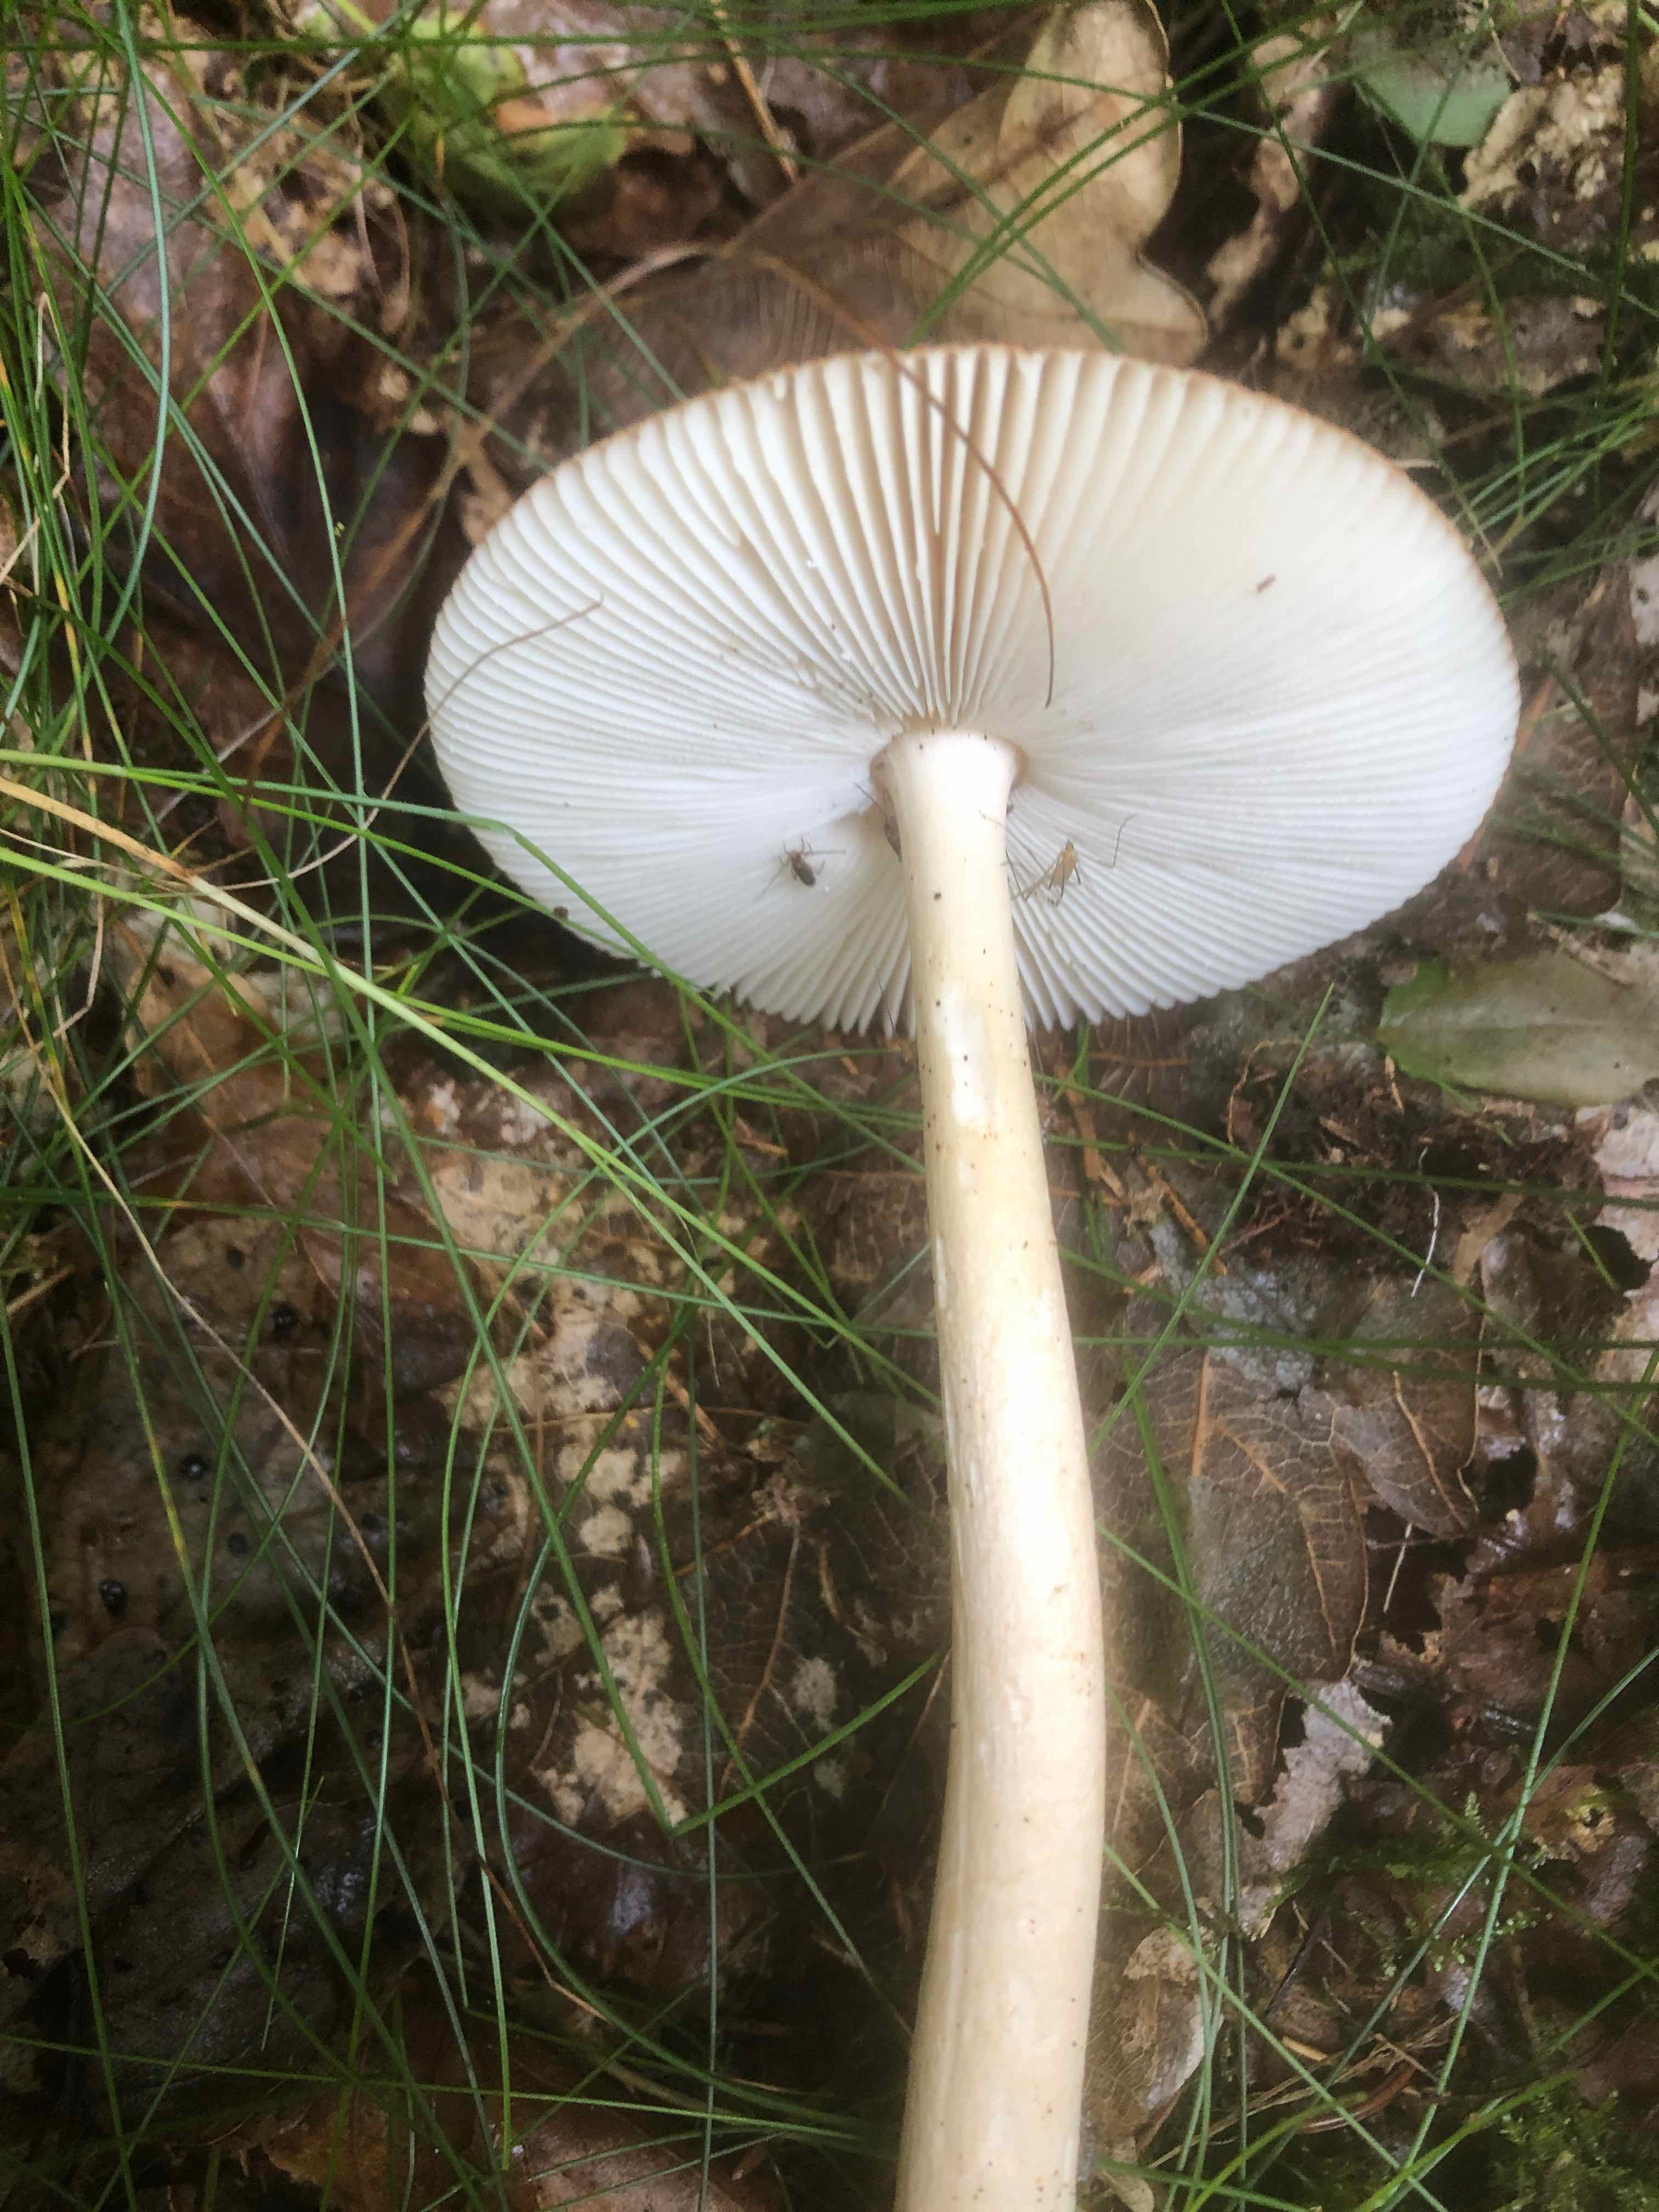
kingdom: Fungi
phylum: Basidiomycota
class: Agaricomycetes
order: Agaricales
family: Amanitaceae
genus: Amanita
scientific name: Amanita fulva
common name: brun kam-fluesvamp
